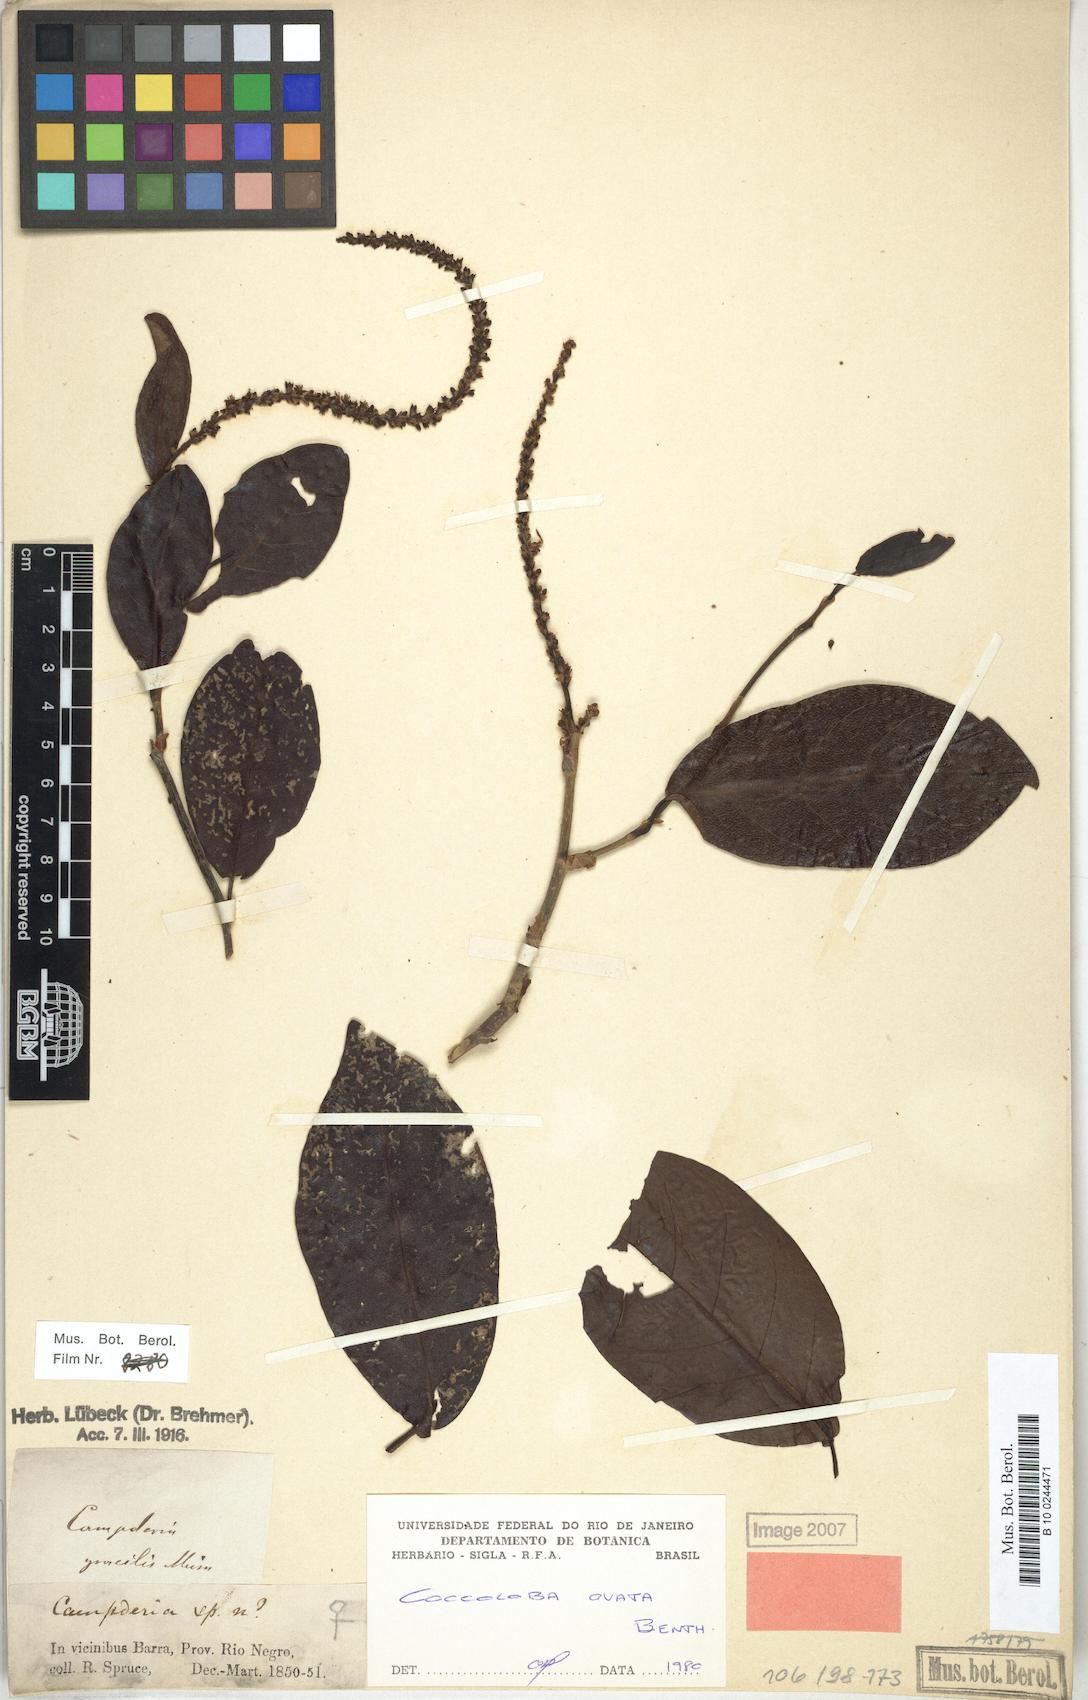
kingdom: Plantae
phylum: Tracheophyta
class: Magnoliopsida
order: Caryophyllales
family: Polygonaceae
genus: Coccoloba
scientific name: Coccoloba ovata
